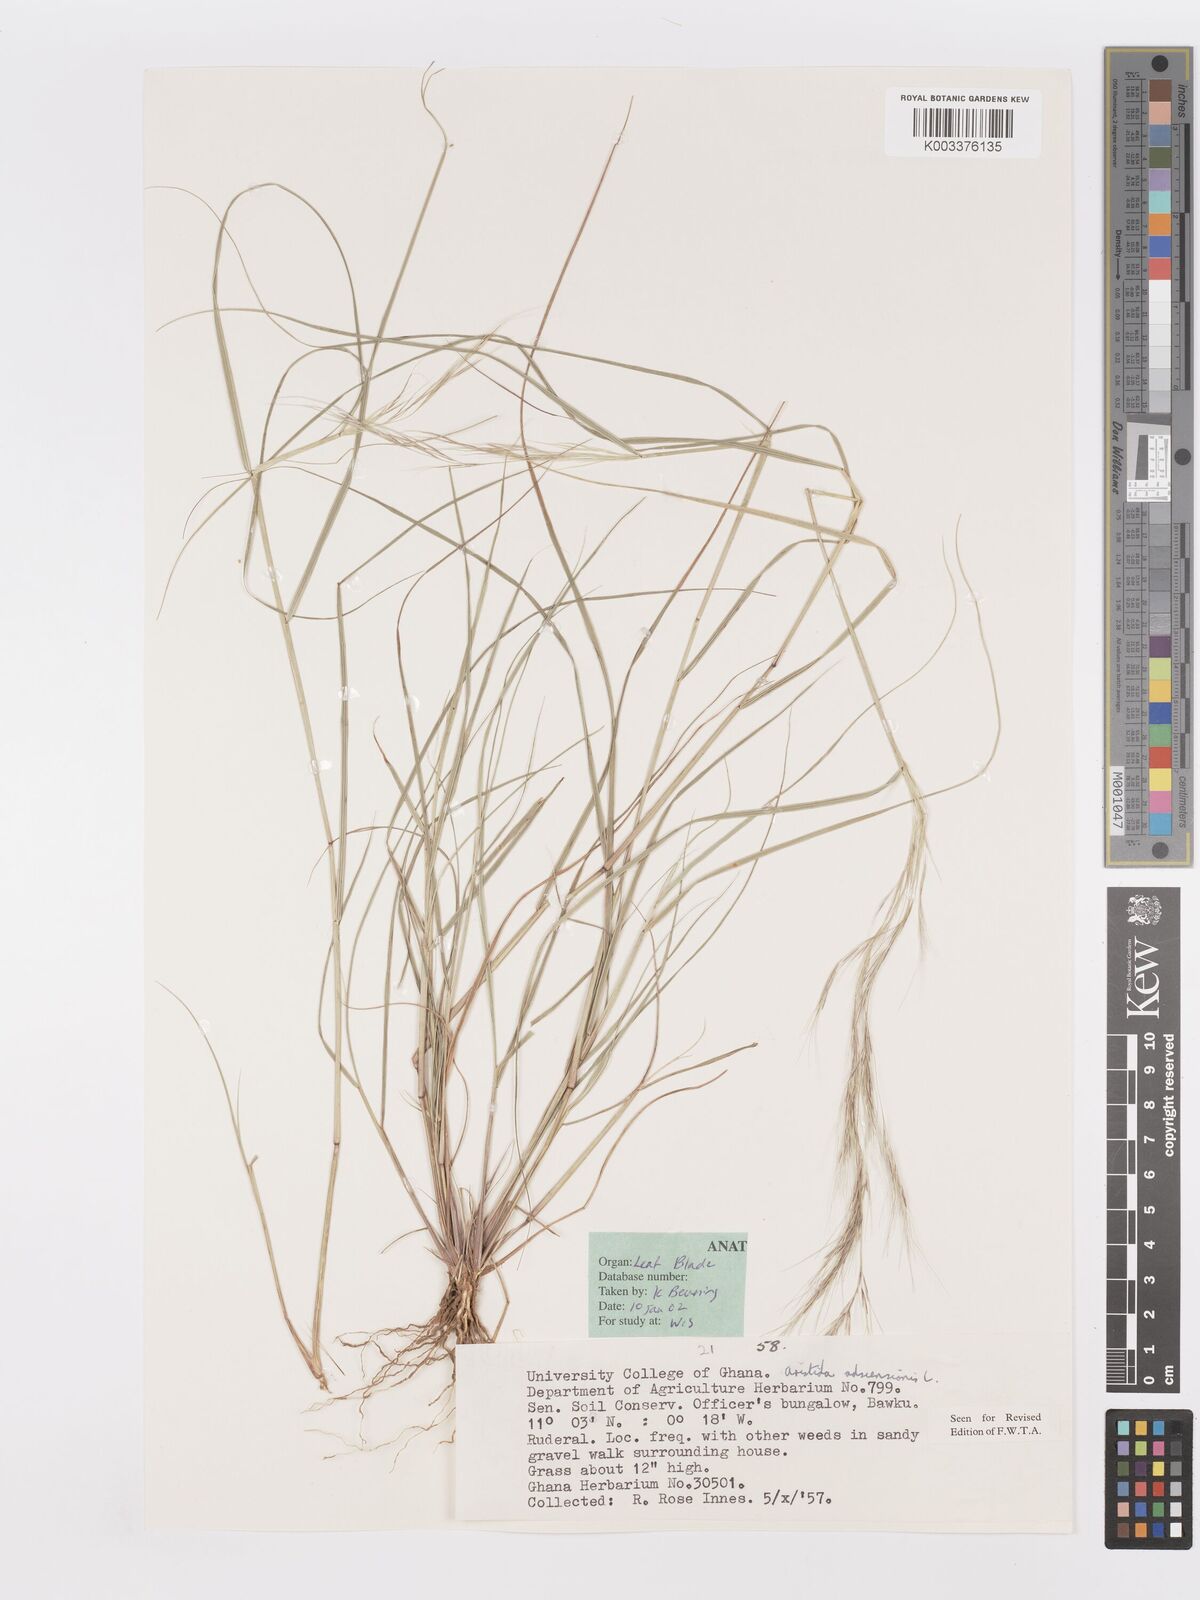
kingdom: Plantae
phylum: Tracheophyta
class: Liliopsida
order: Poales
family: Poaceae
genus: Aristida
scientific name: Aristida adscensionis
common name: Sixweeks threeawn
